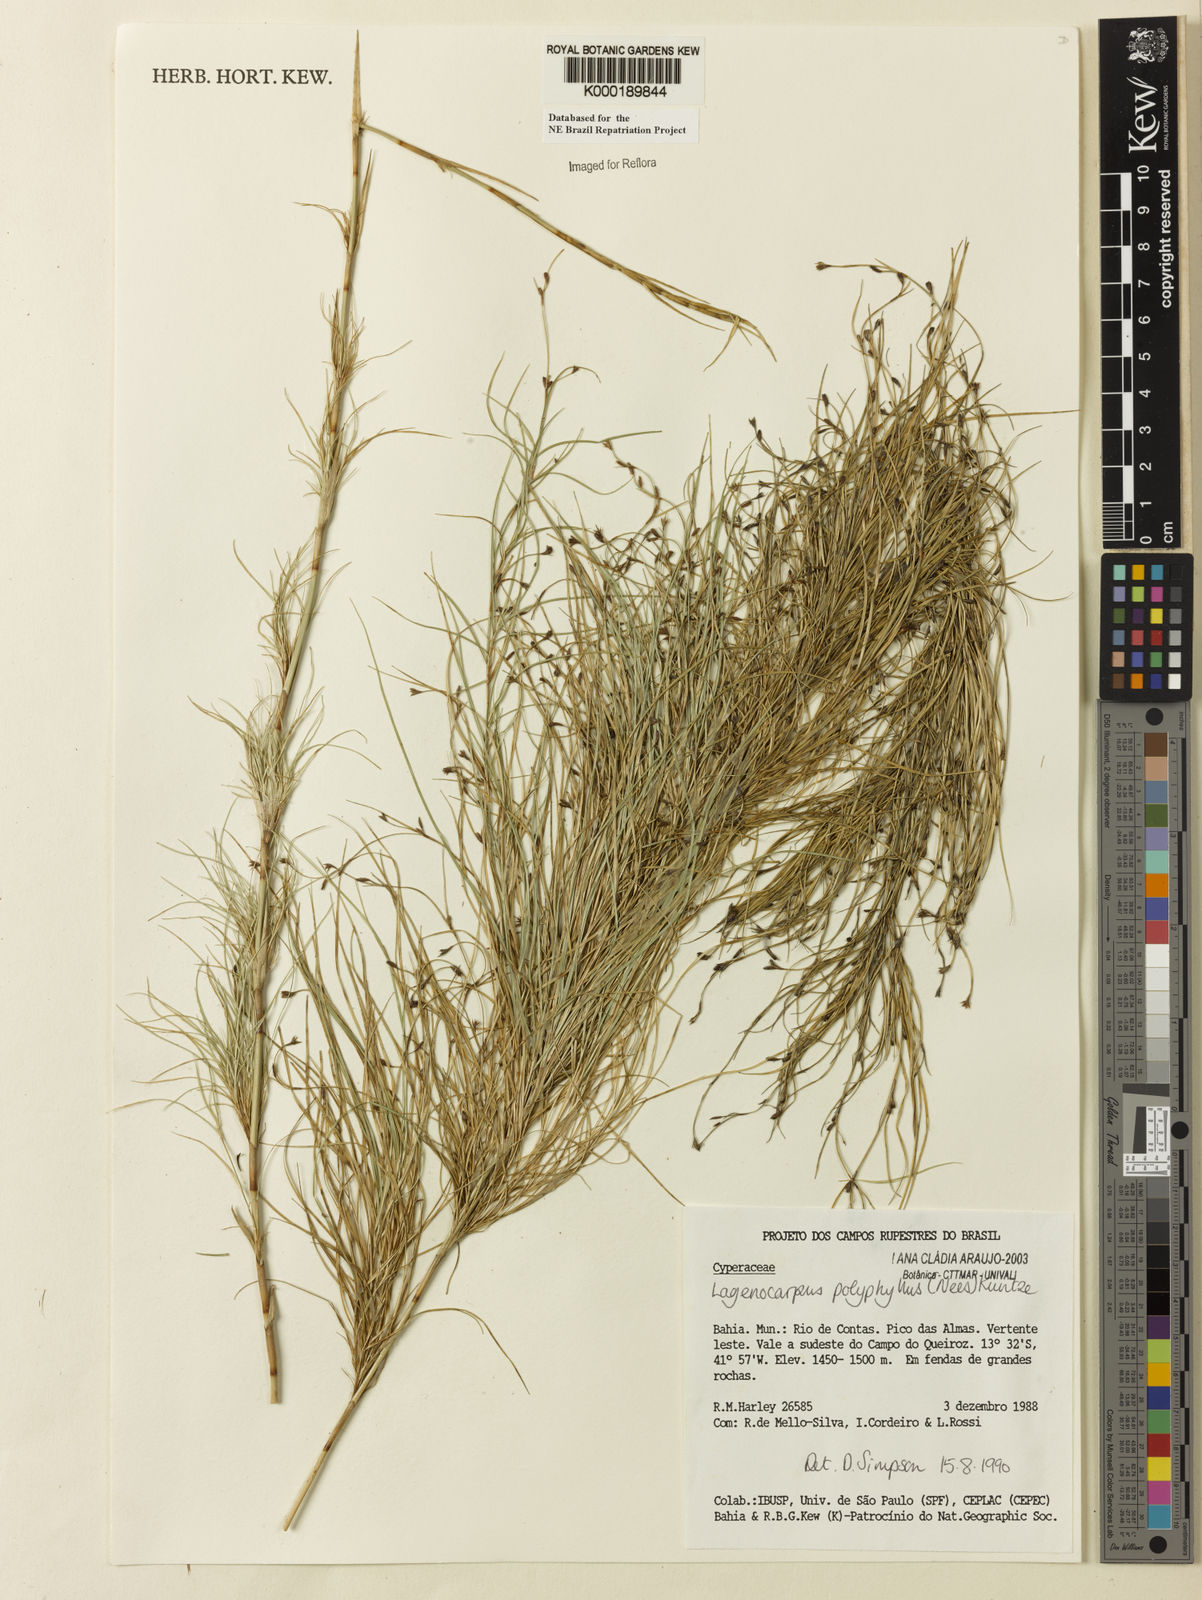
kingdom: Plantae
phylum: Tracheophyta
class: Liliopsida
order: Poales
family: Cyperaceae
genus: Cryptangium
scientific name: Cryptangium verticillatum
